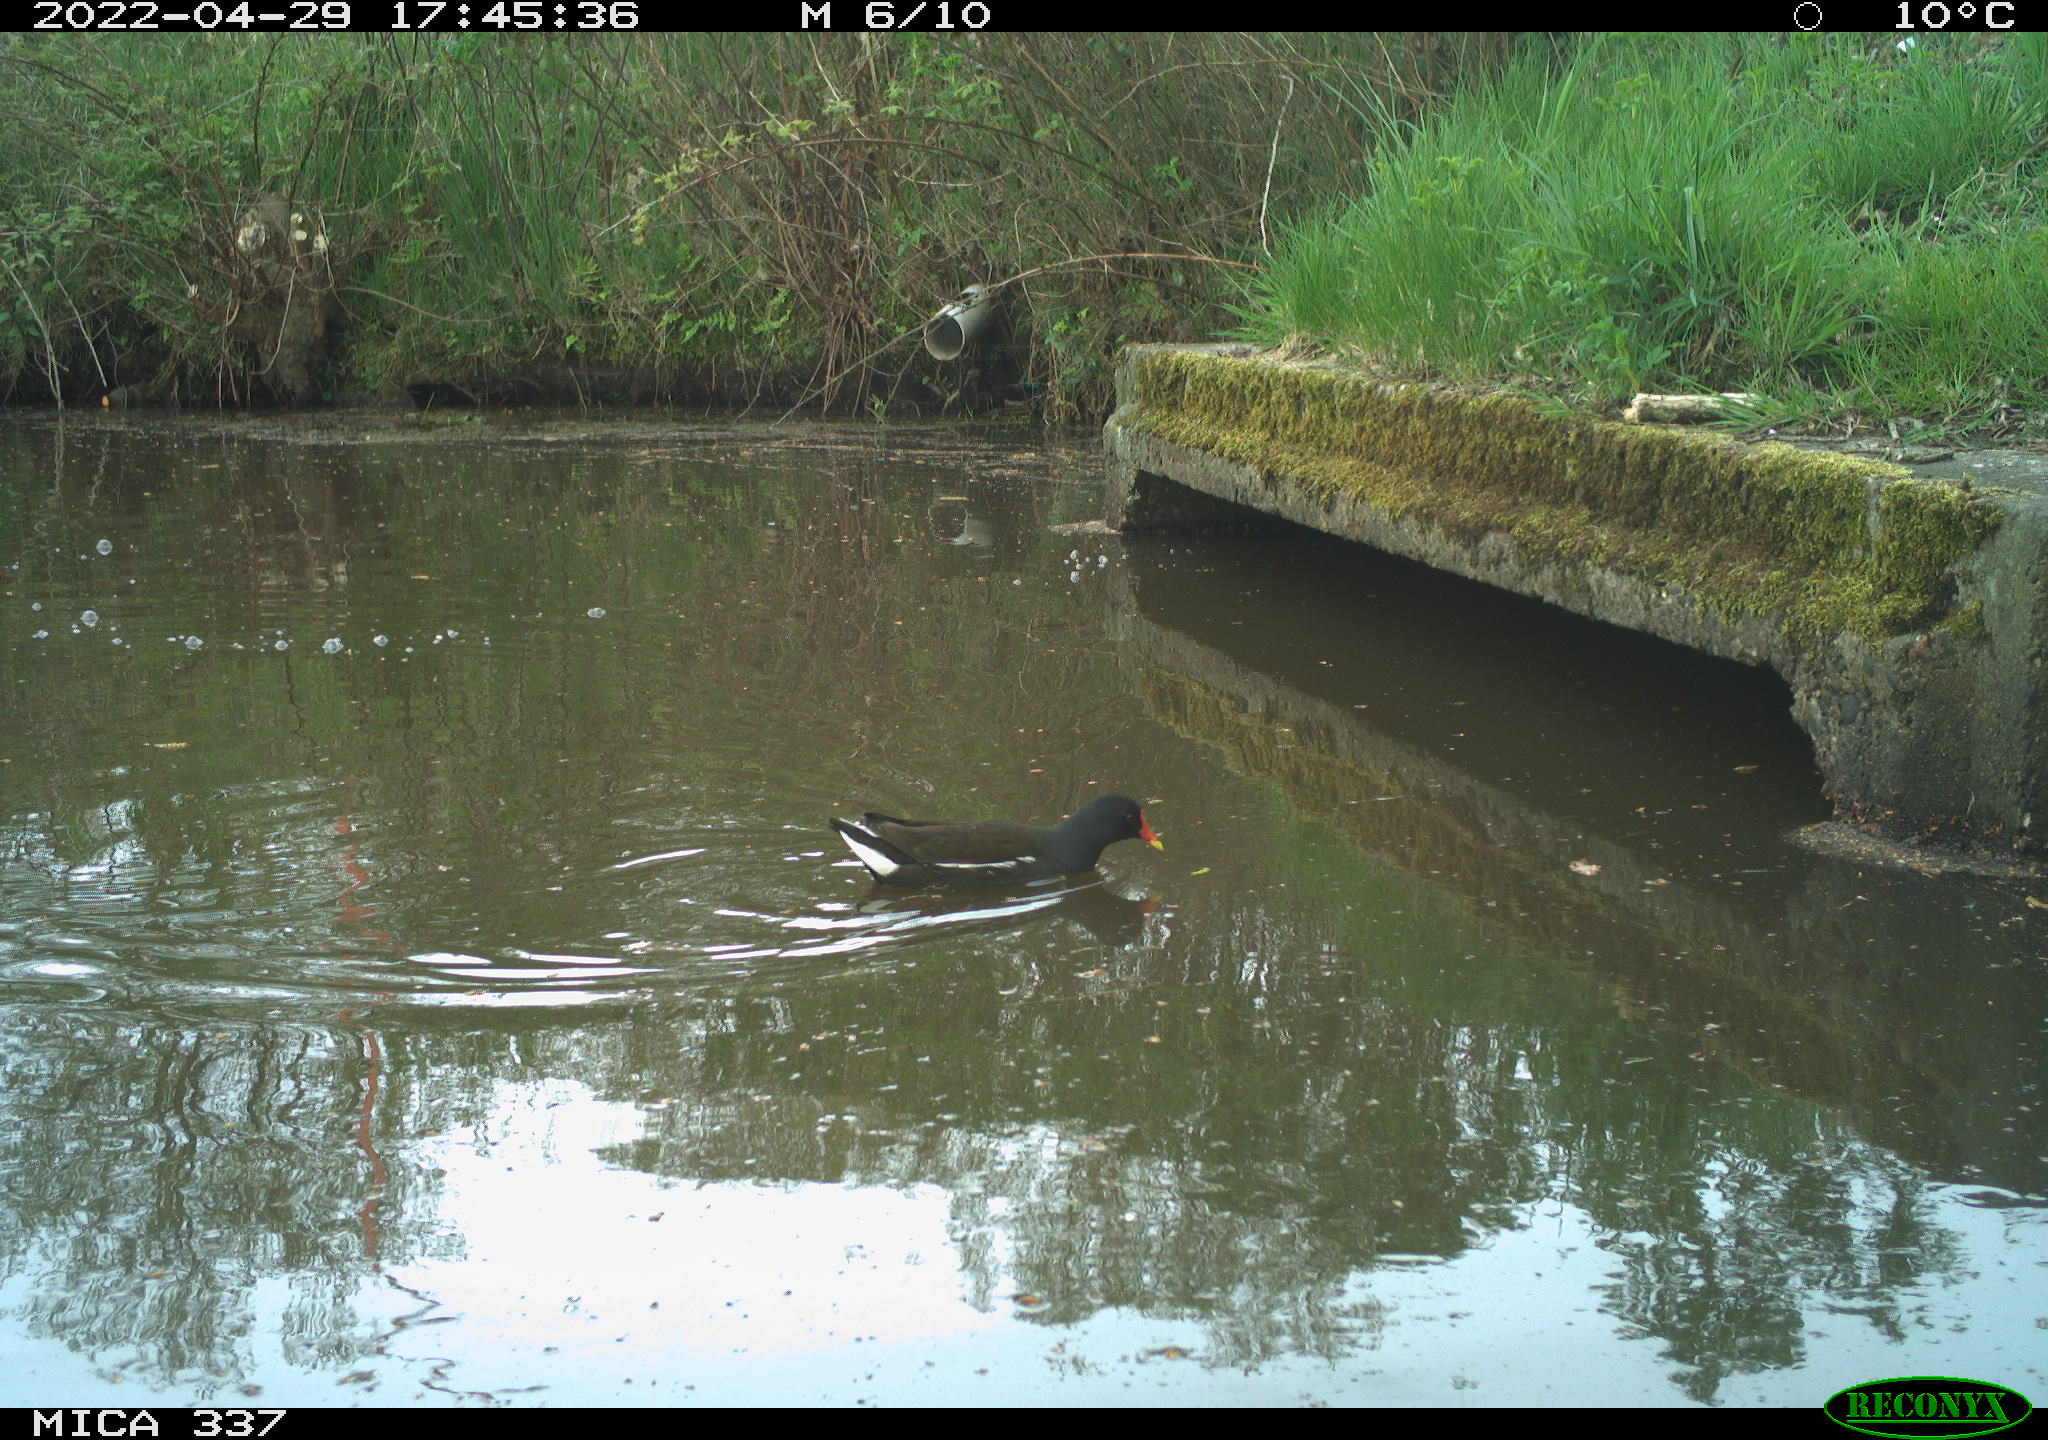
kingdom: Animalia
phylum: Chordata
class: Aves
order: Gruiformes
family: Rallidae
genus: Gallinula
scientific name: Gallinula chloropus
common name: Common moorhen
